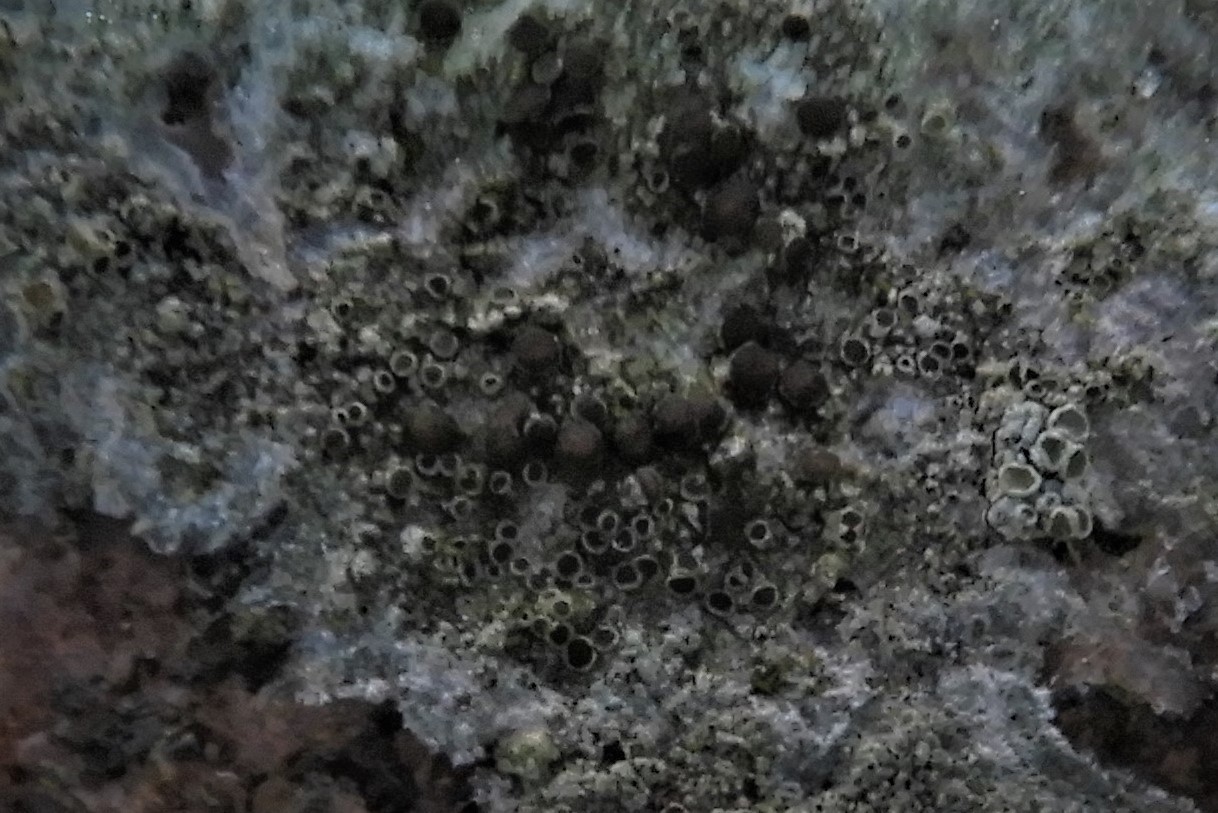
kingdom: Fungi
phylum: Ascomycota
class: Lecanoromycetes
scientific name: Lecanoromycetes
